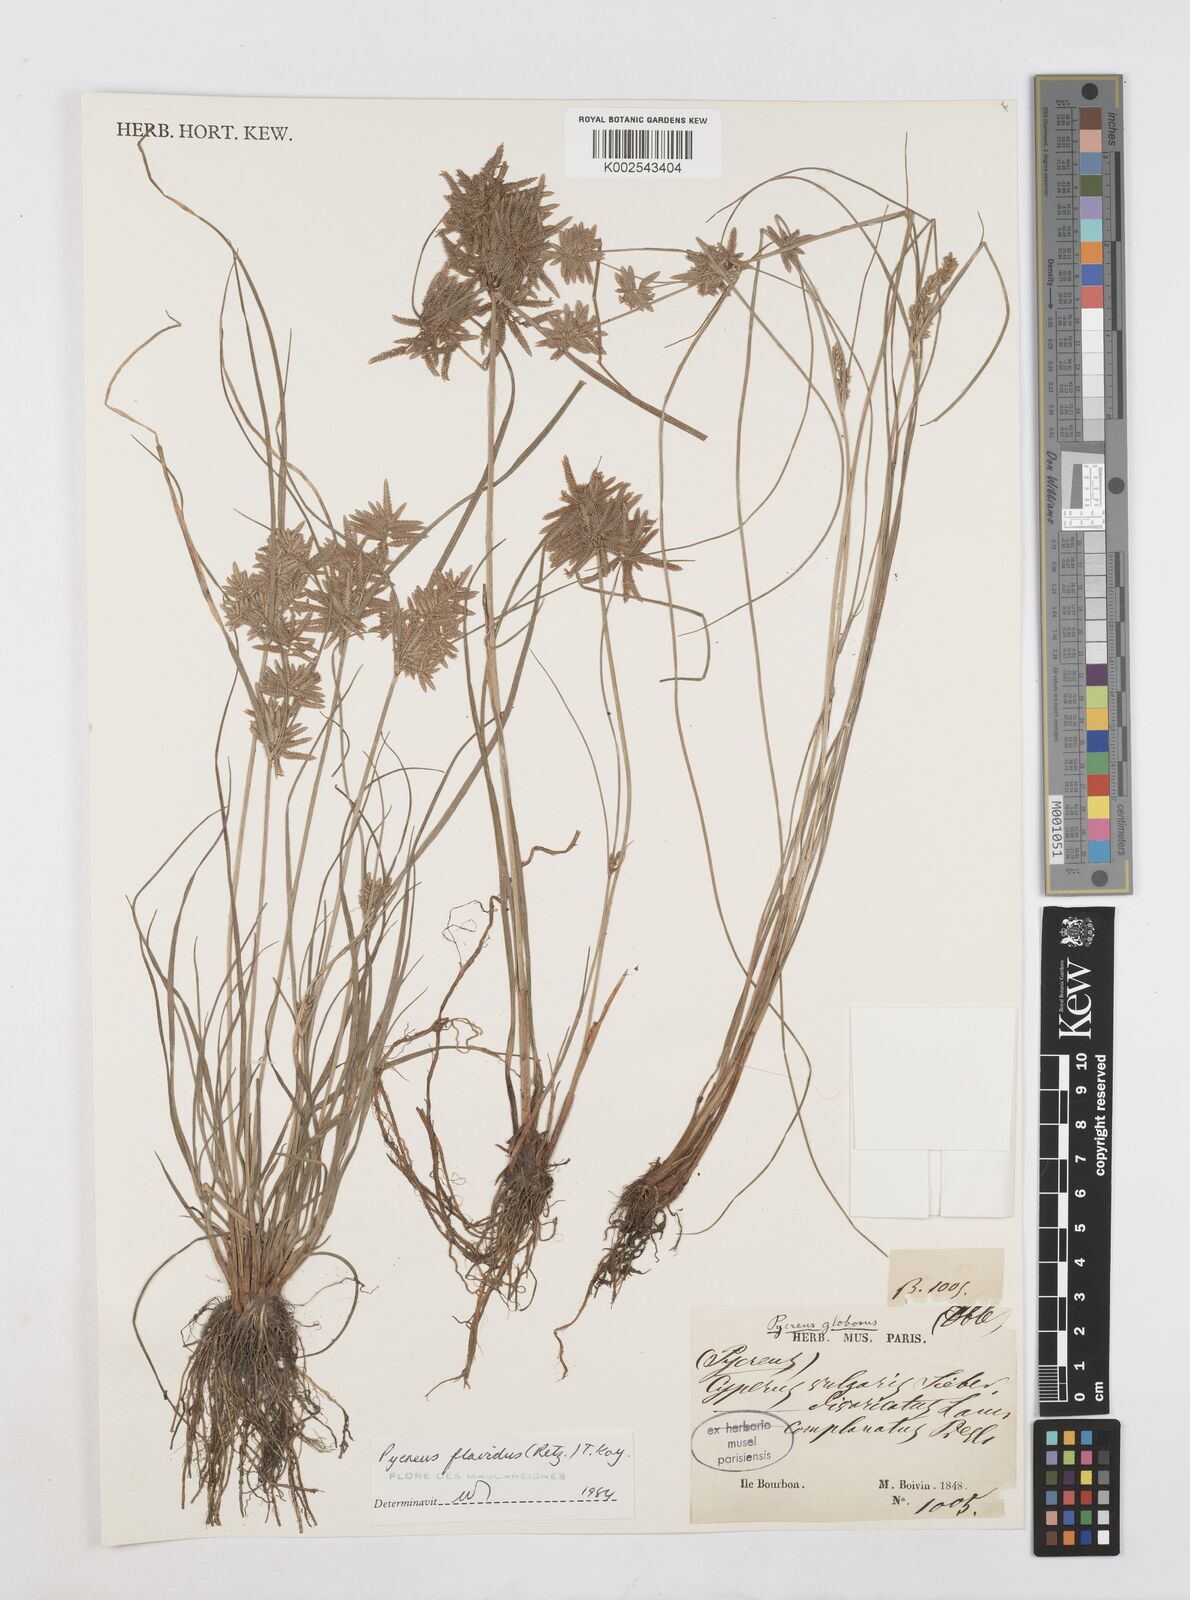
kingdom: Plantae
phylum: Tracheophyta
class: Liliopsida
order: Poales
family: Cyperaceae
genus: Cyperus
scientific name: Cyperus flavidus
